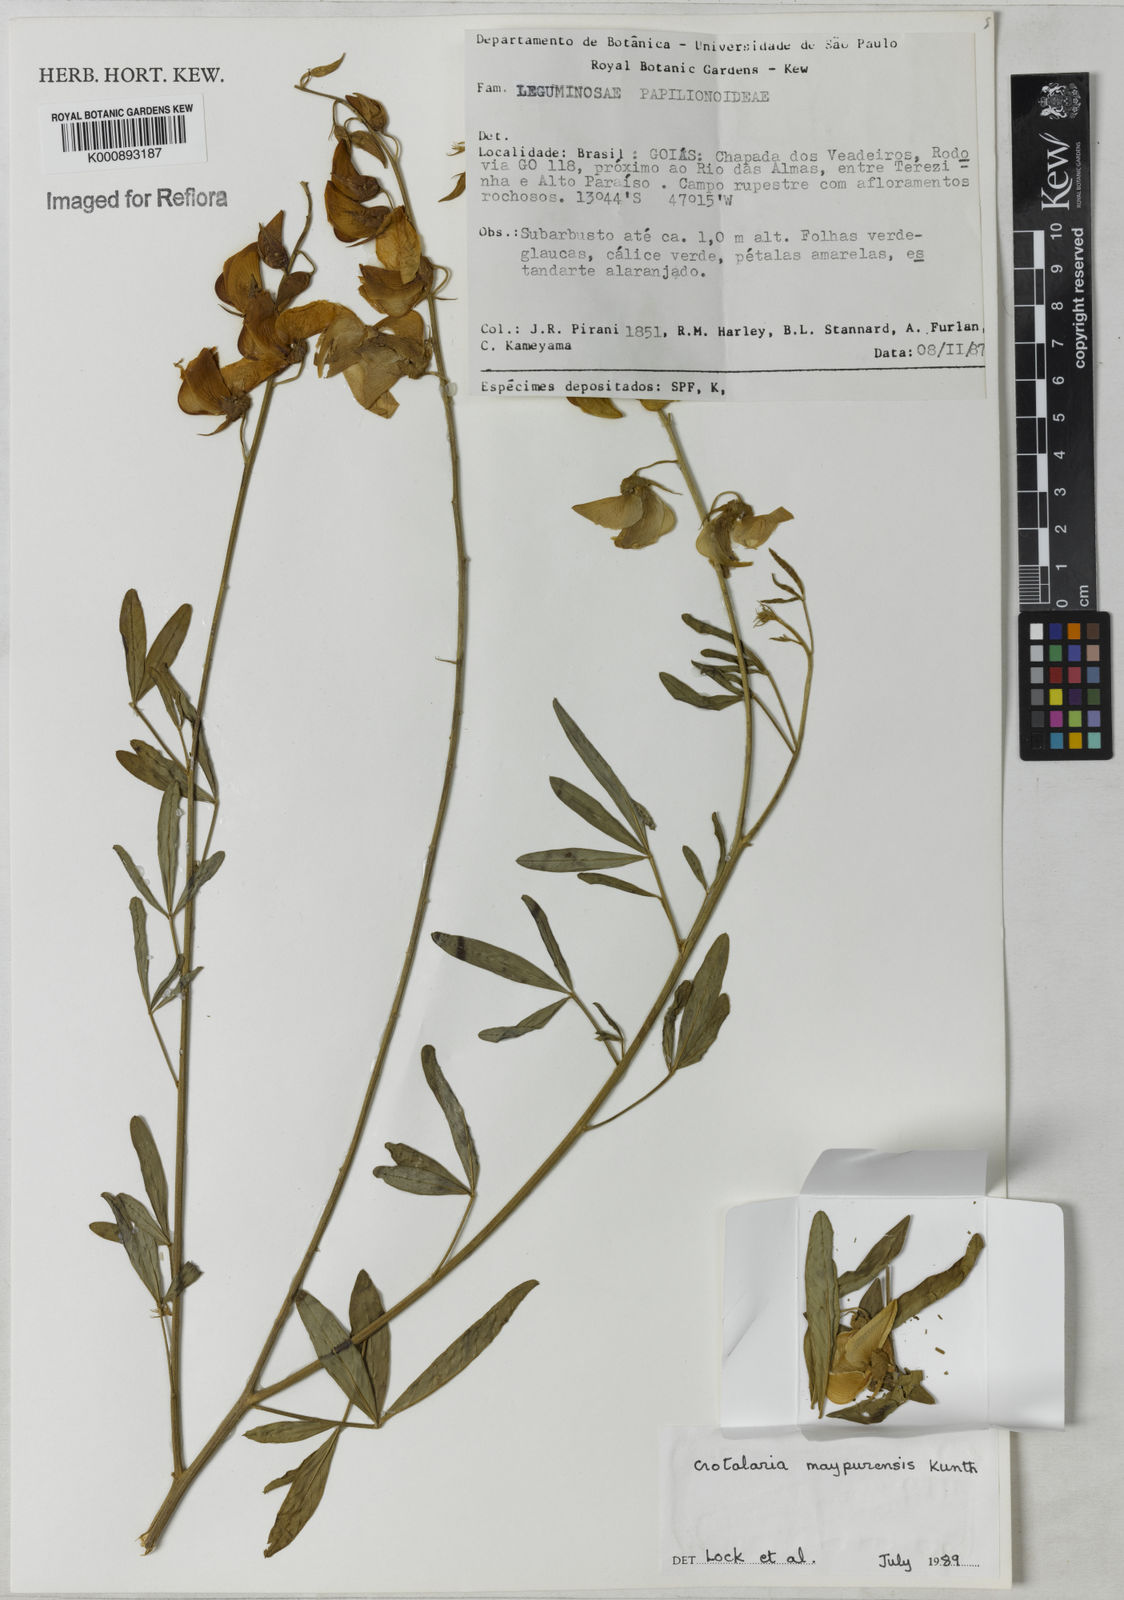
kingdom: Plantae
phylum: Tracheophyta
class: Magnoliopsida
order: Fabales
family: Fabaceae
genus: Crotalaria
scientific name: Crotalaria maypurensis
